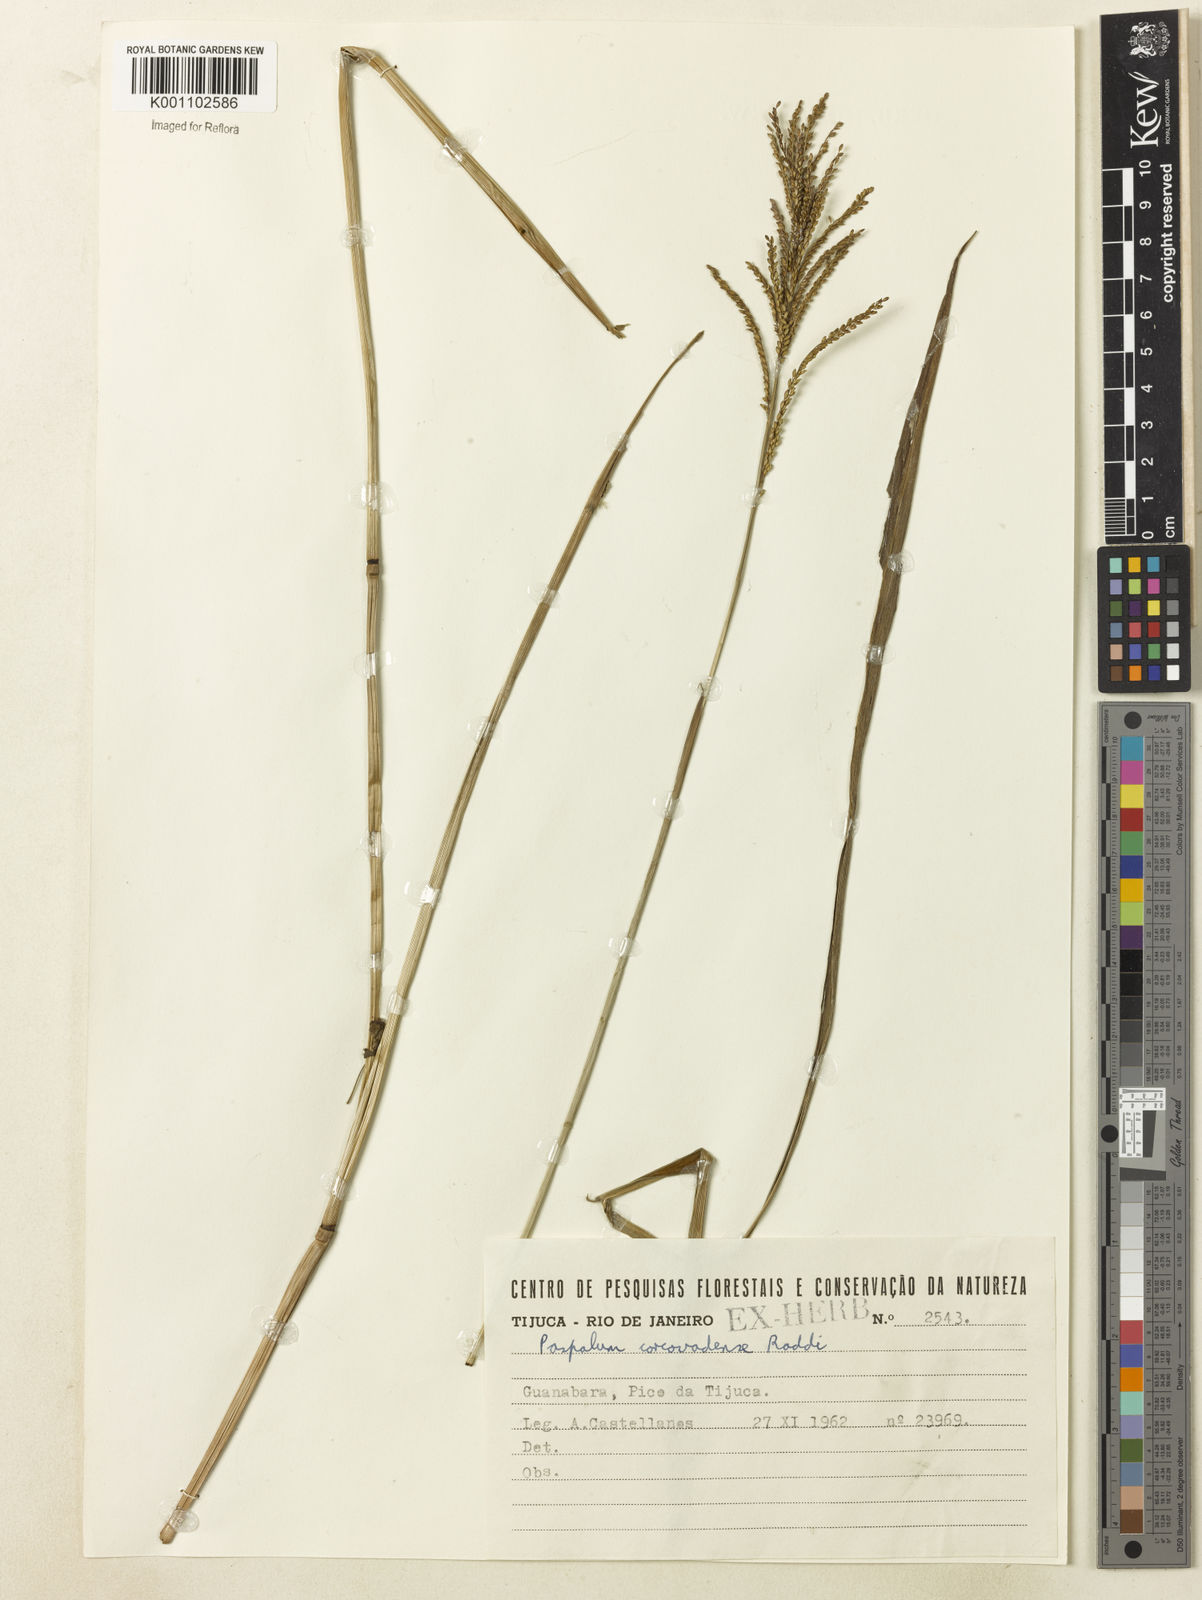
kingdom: Plantae
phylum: Tracheophyta
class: Liliopsida
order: Poales
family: Poaceae
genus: Paspalum
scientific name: Paspalum corcovadense
